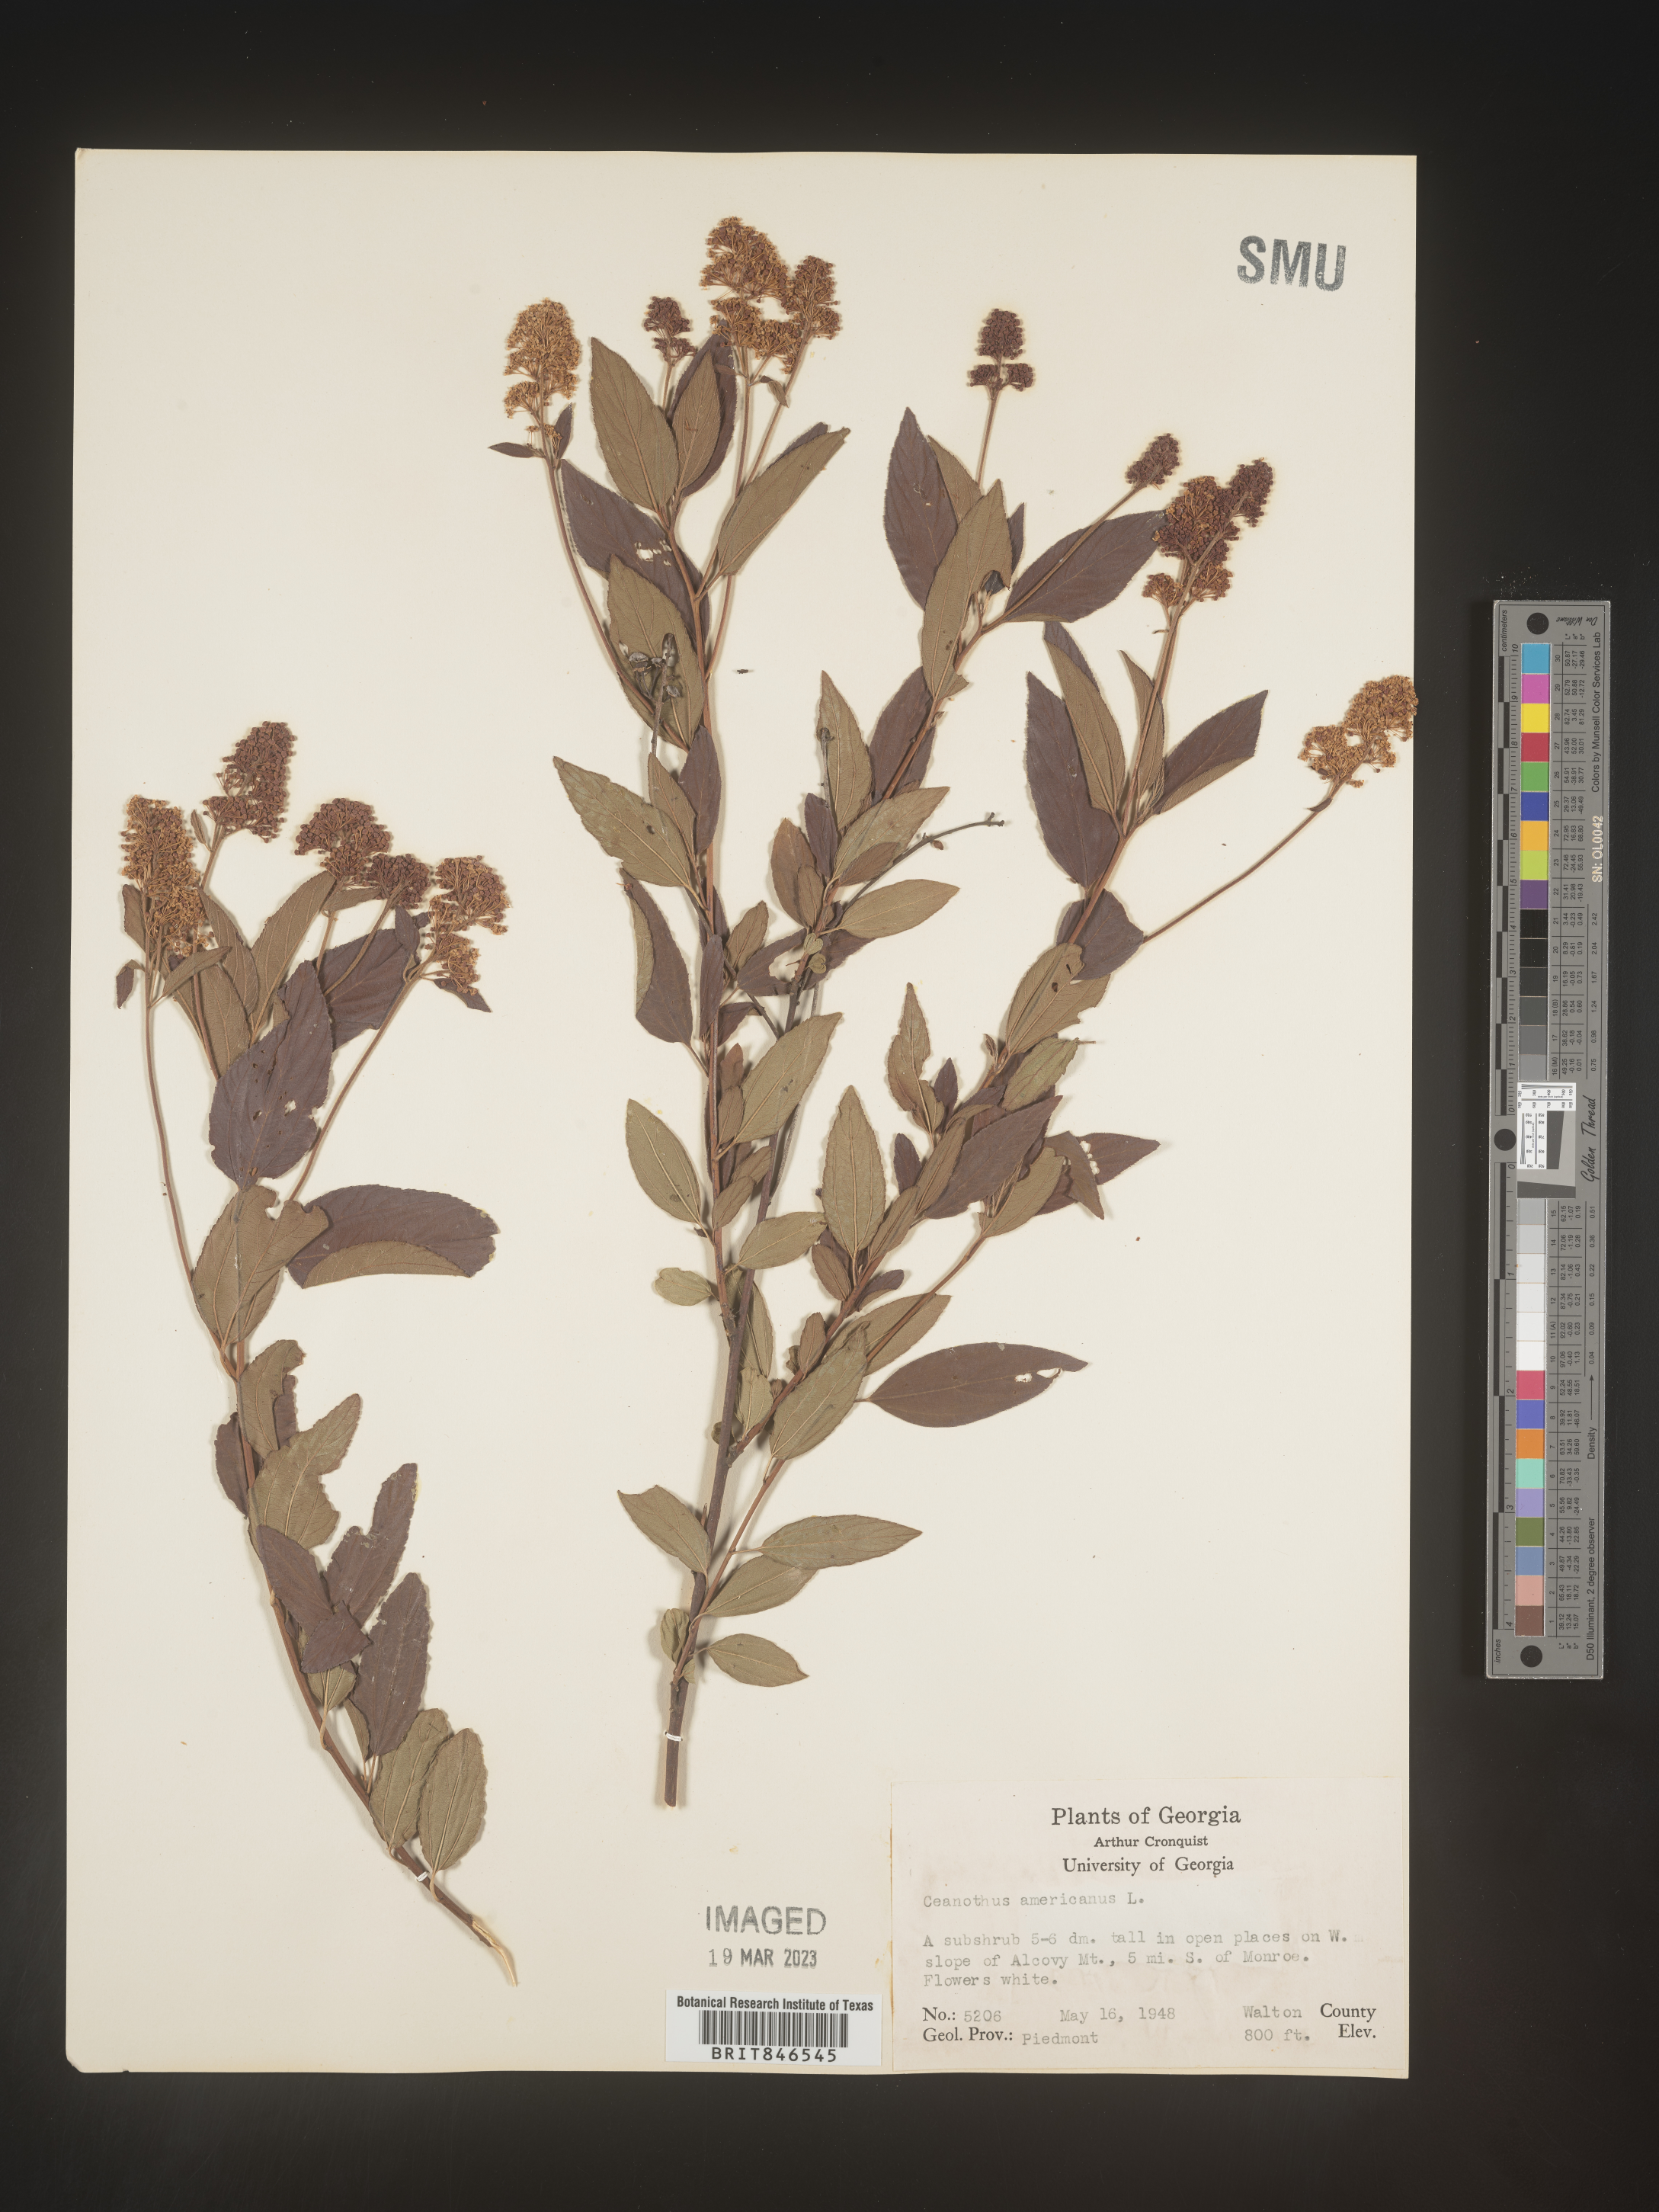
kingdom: Plantae
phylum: Tracheophyta
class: Magnoliopsida
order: Rosales
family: Rhamnaceae
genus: Ceanothus
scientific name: Ceanothus americanus
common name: Redroot
